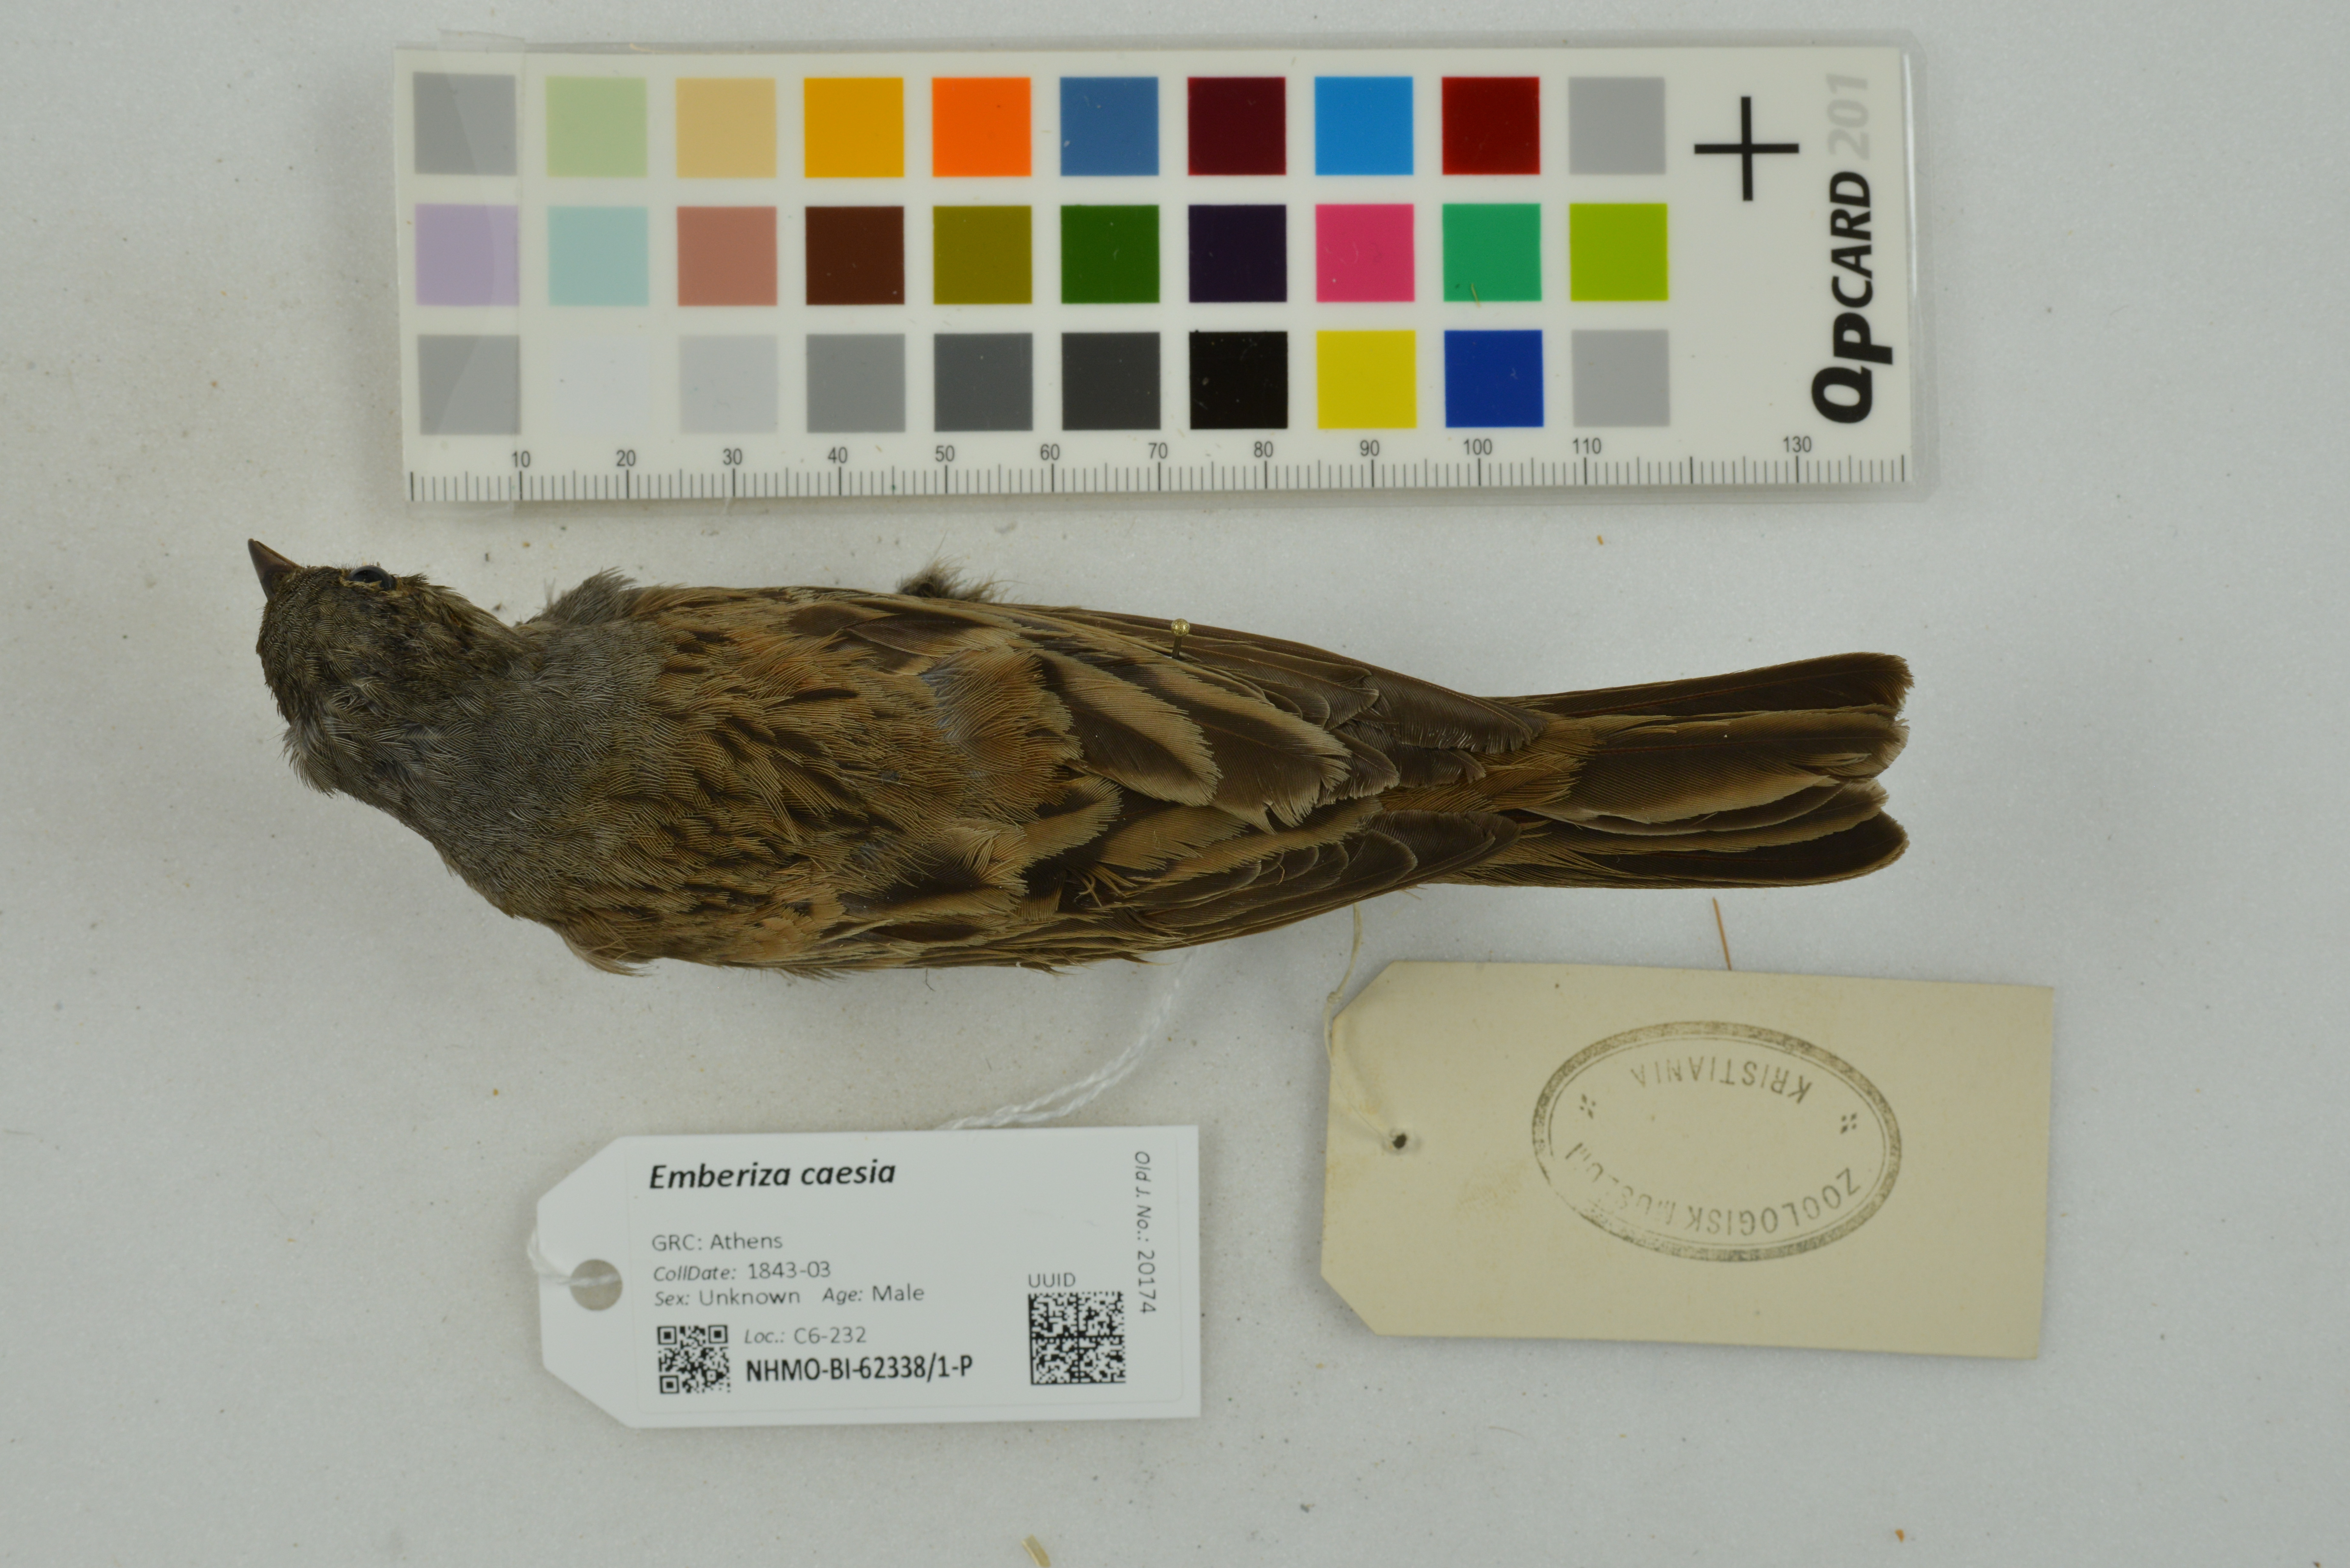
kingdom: Animalia
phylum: Chordata
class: Aves
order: Passeriformes
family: Emberizidae
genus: Emberiza
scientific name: Emberiza caesia
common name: Cretzschmar's bunting
